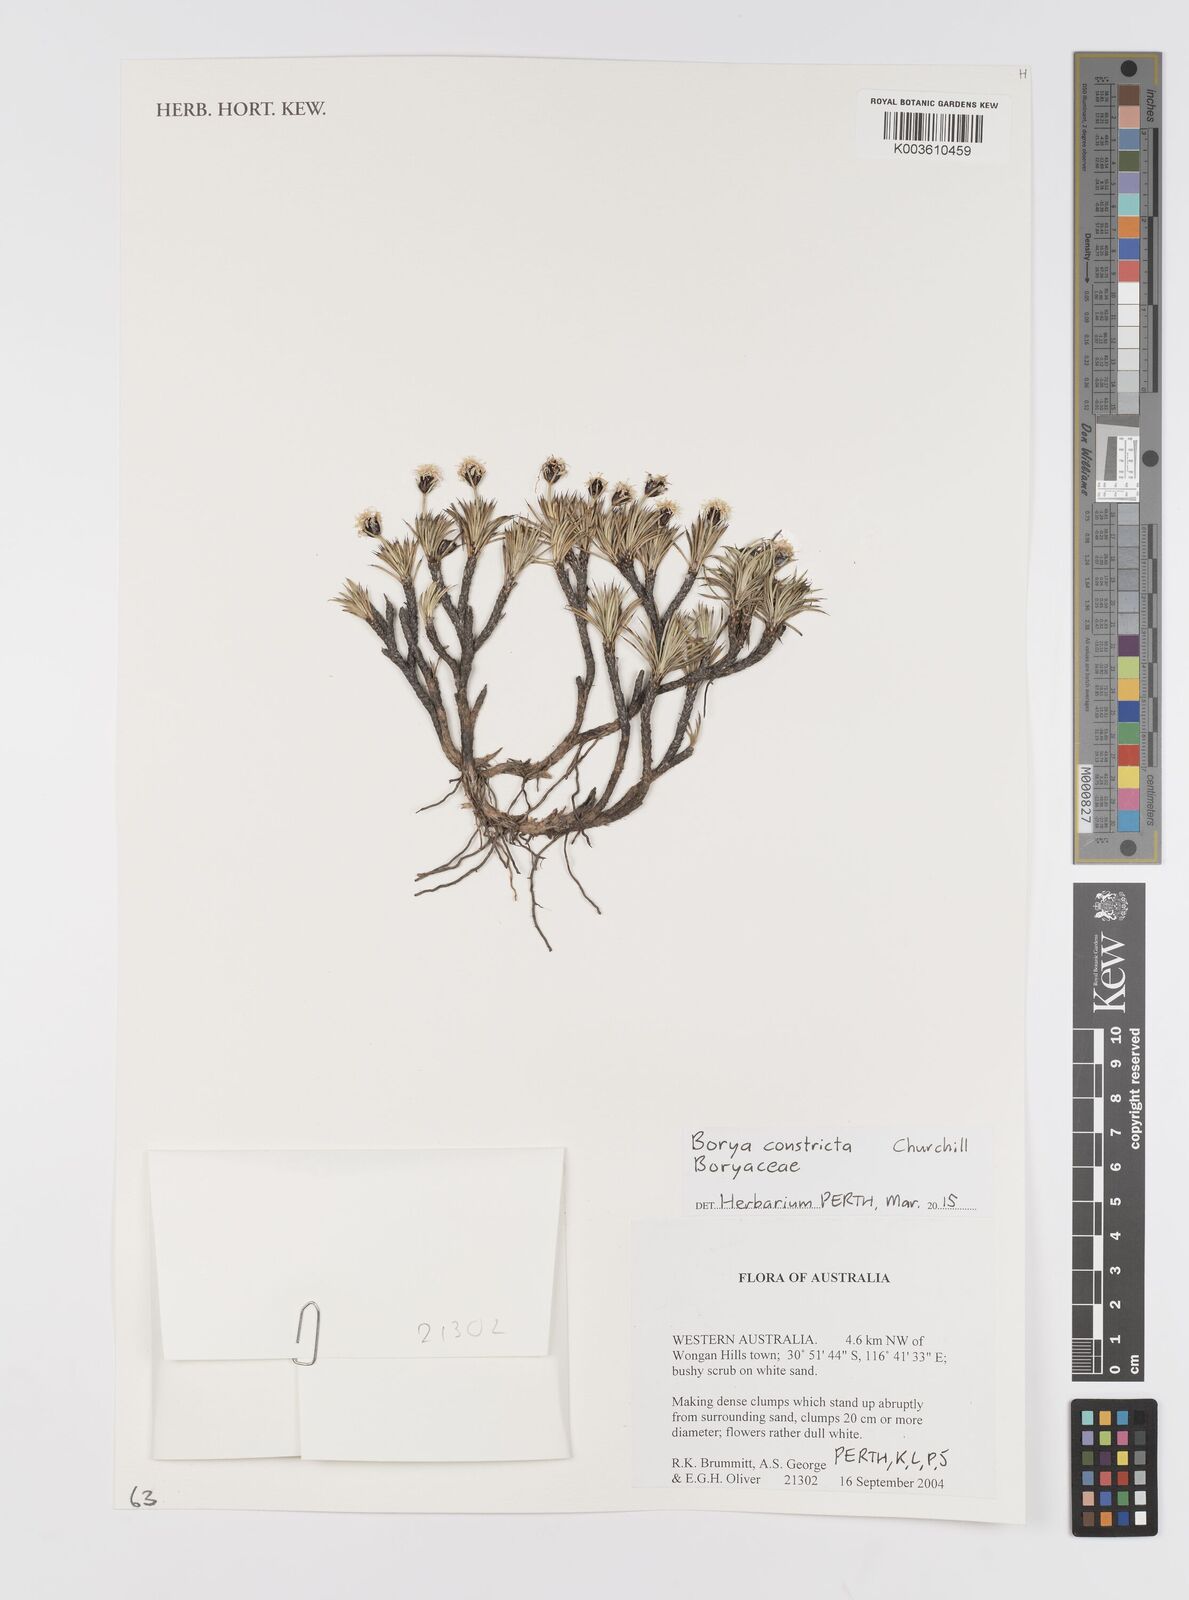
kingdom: Plantae
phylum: Tracheophyta
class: Liliopsida
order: Asparagales
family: Boryaceae
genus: Borya
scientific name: Borya constricta
